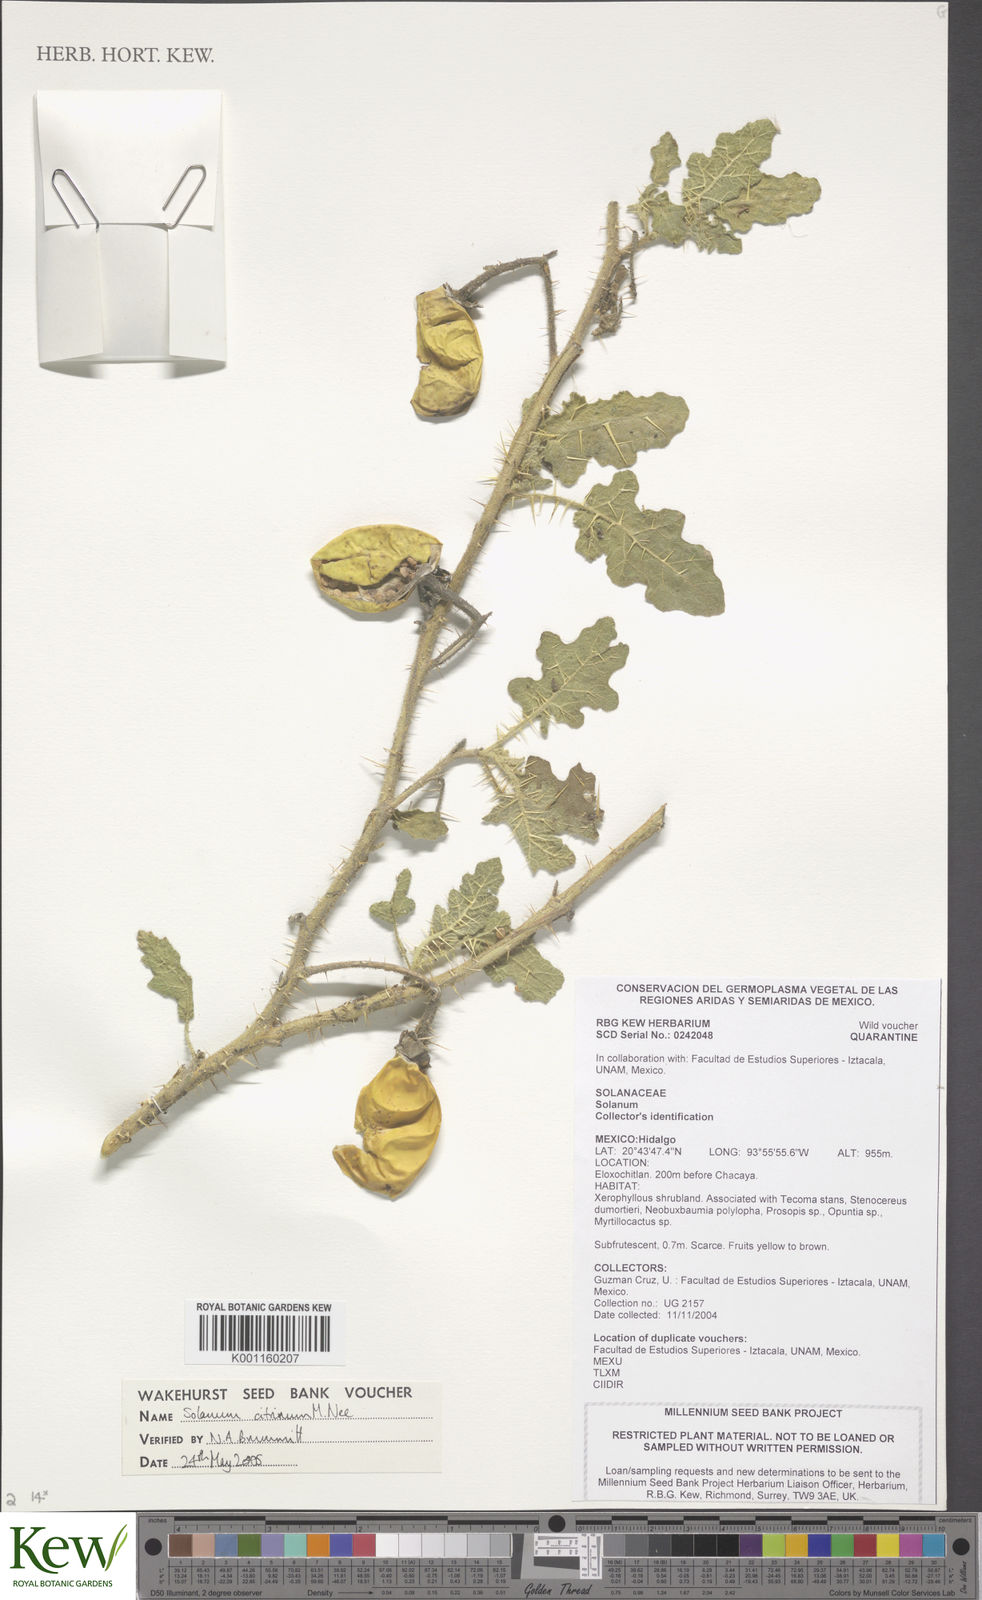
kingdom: Plantae
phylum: Tracheophyta
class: Magnoliopsida
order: Solanales
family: Solanaceae
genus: Solanum
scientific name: Solanum citrinum
